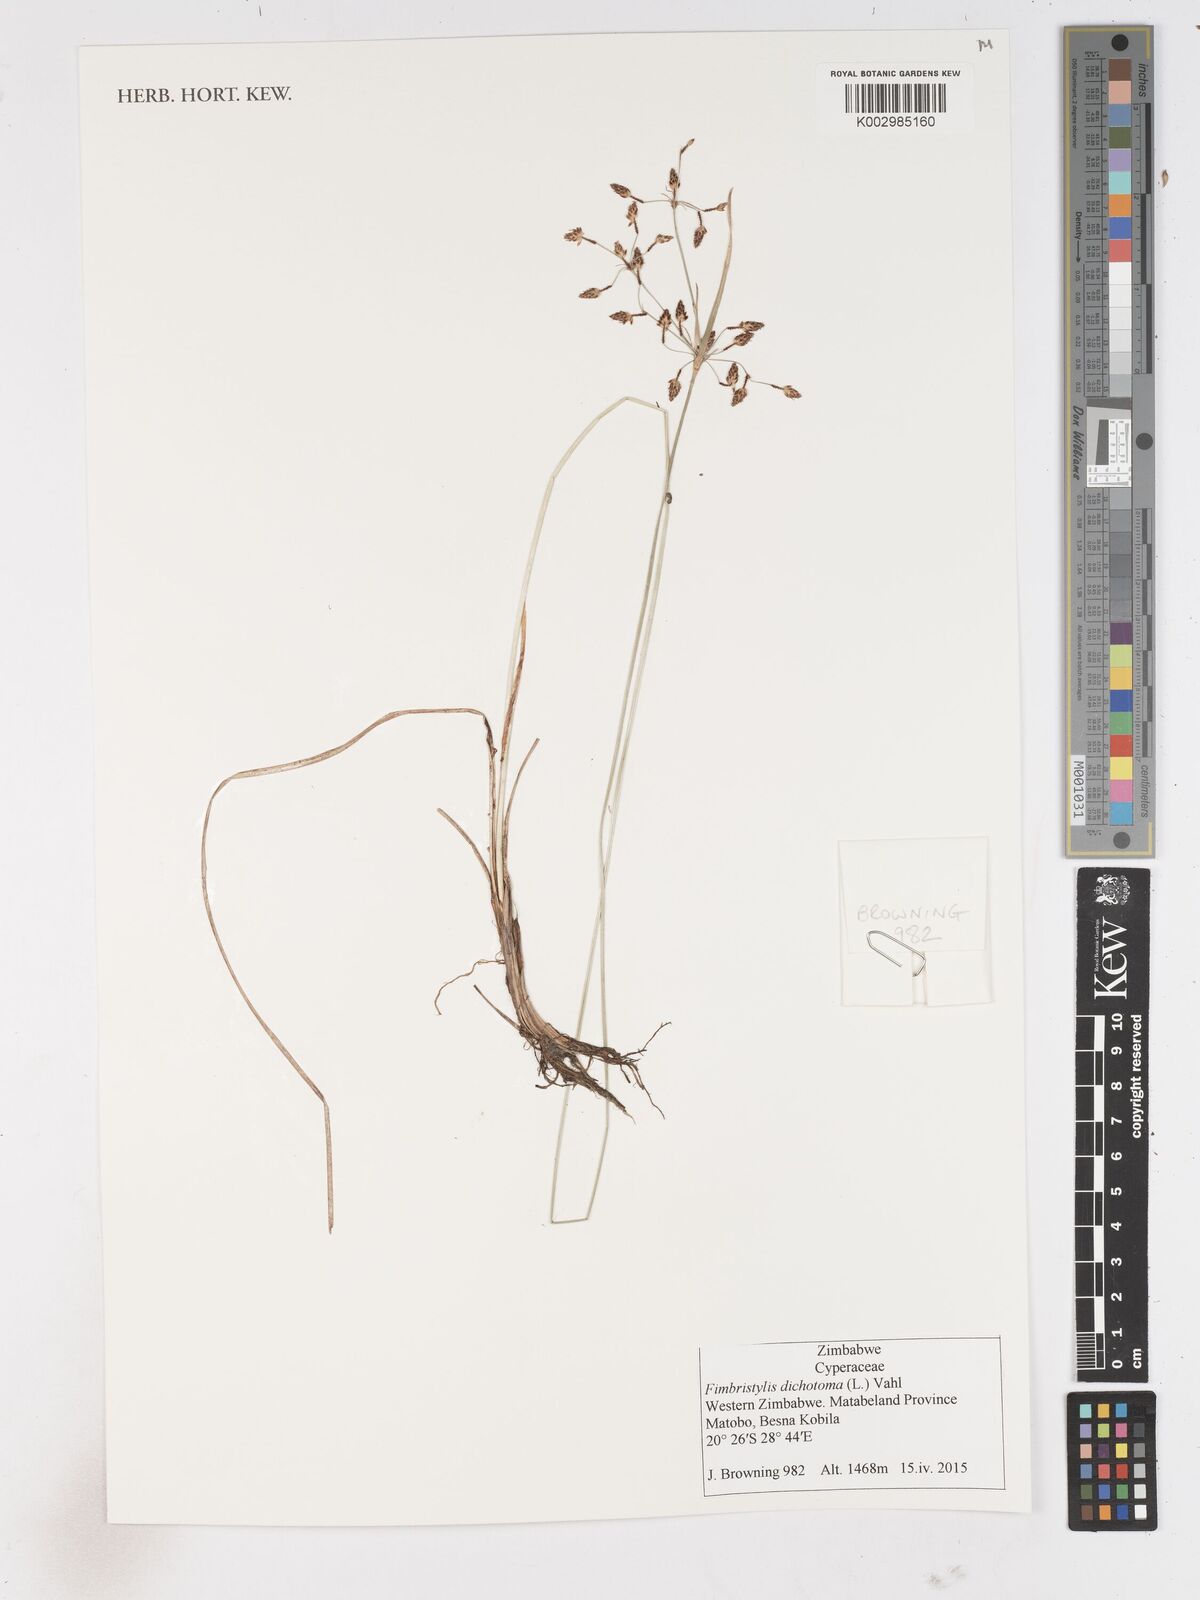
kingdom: Plantae
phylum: Tracheophyta
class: Liliopsida
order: Poales
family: Cyperaceae
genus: Fimbristylis
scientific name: Fimbristylis dichotoma
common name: Forked fimbry
